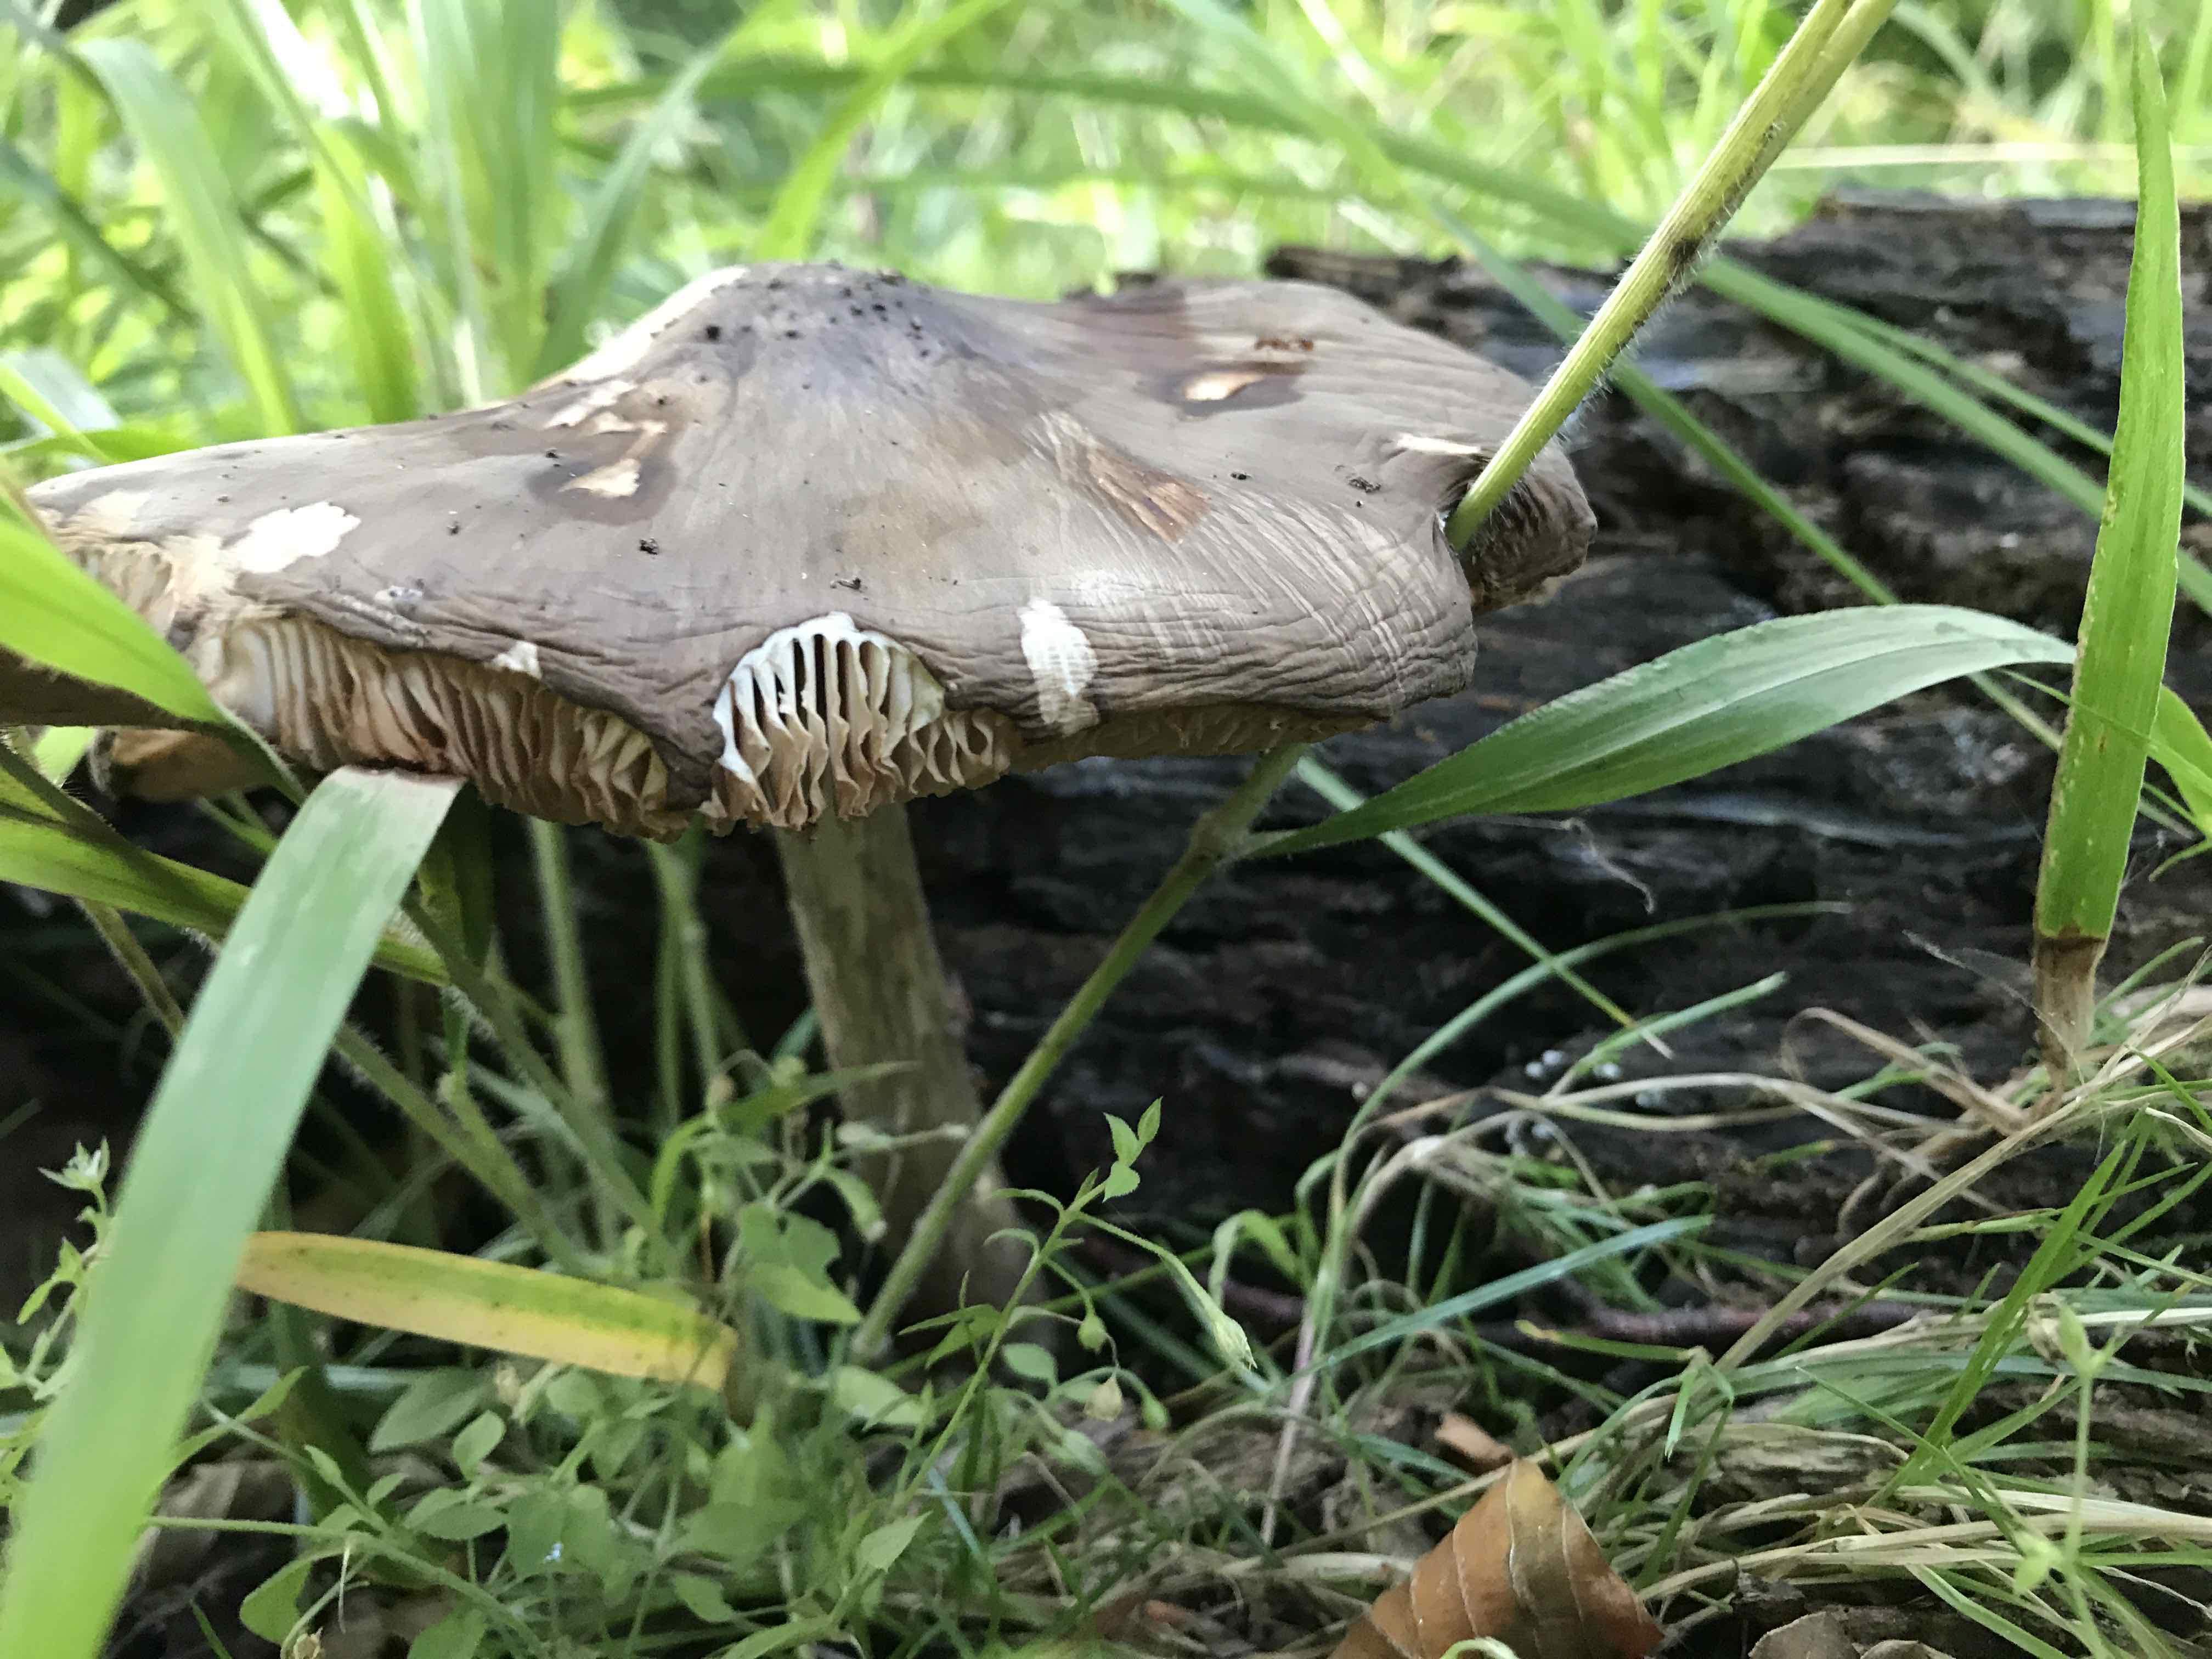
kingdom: Fungi
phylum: Basidiomycota
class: Agaricomycetes
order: Agaricales
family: Pluteaceae
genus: Pluteus
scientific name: Pluteus cervinus
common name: sodfarvet skærmhat
